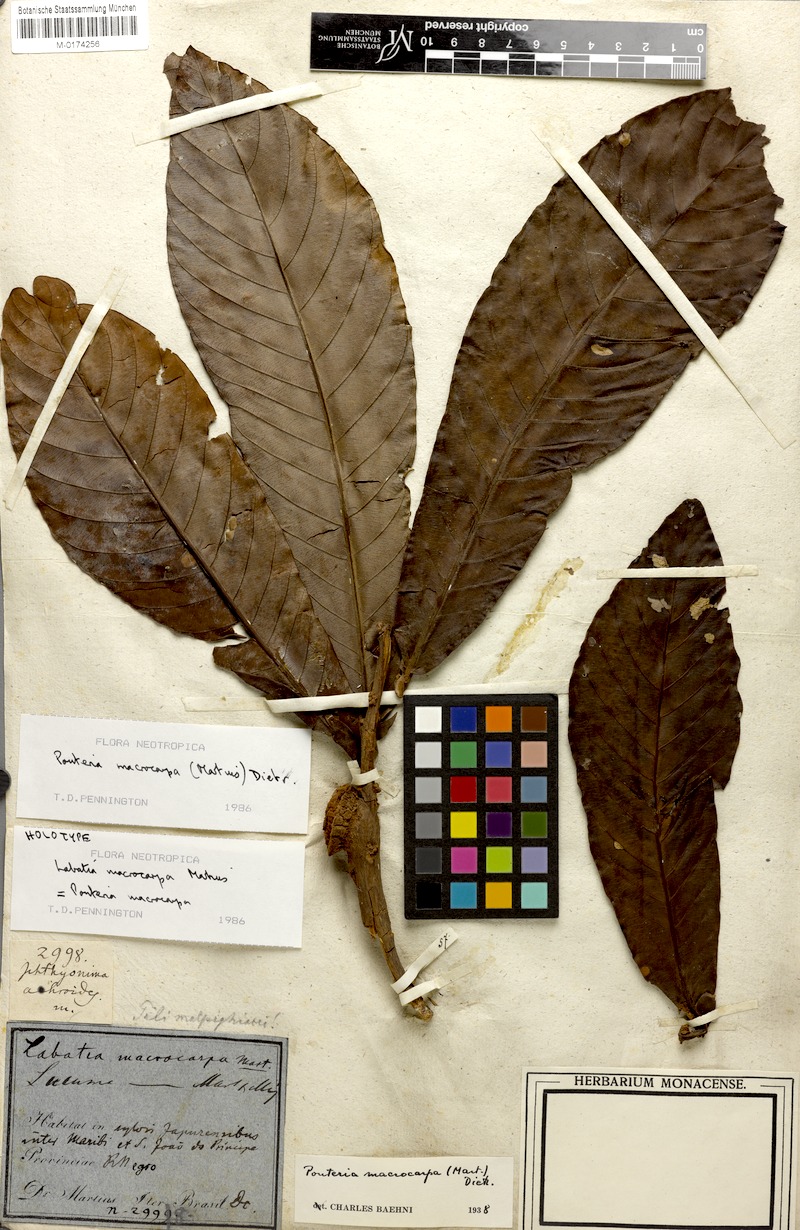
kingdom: Plantae
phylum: Tracheophyta
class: Magnoliopsida
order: Ericales
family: Sapotaceae
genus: Pouteria
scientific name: Pouteria macrocarpa
